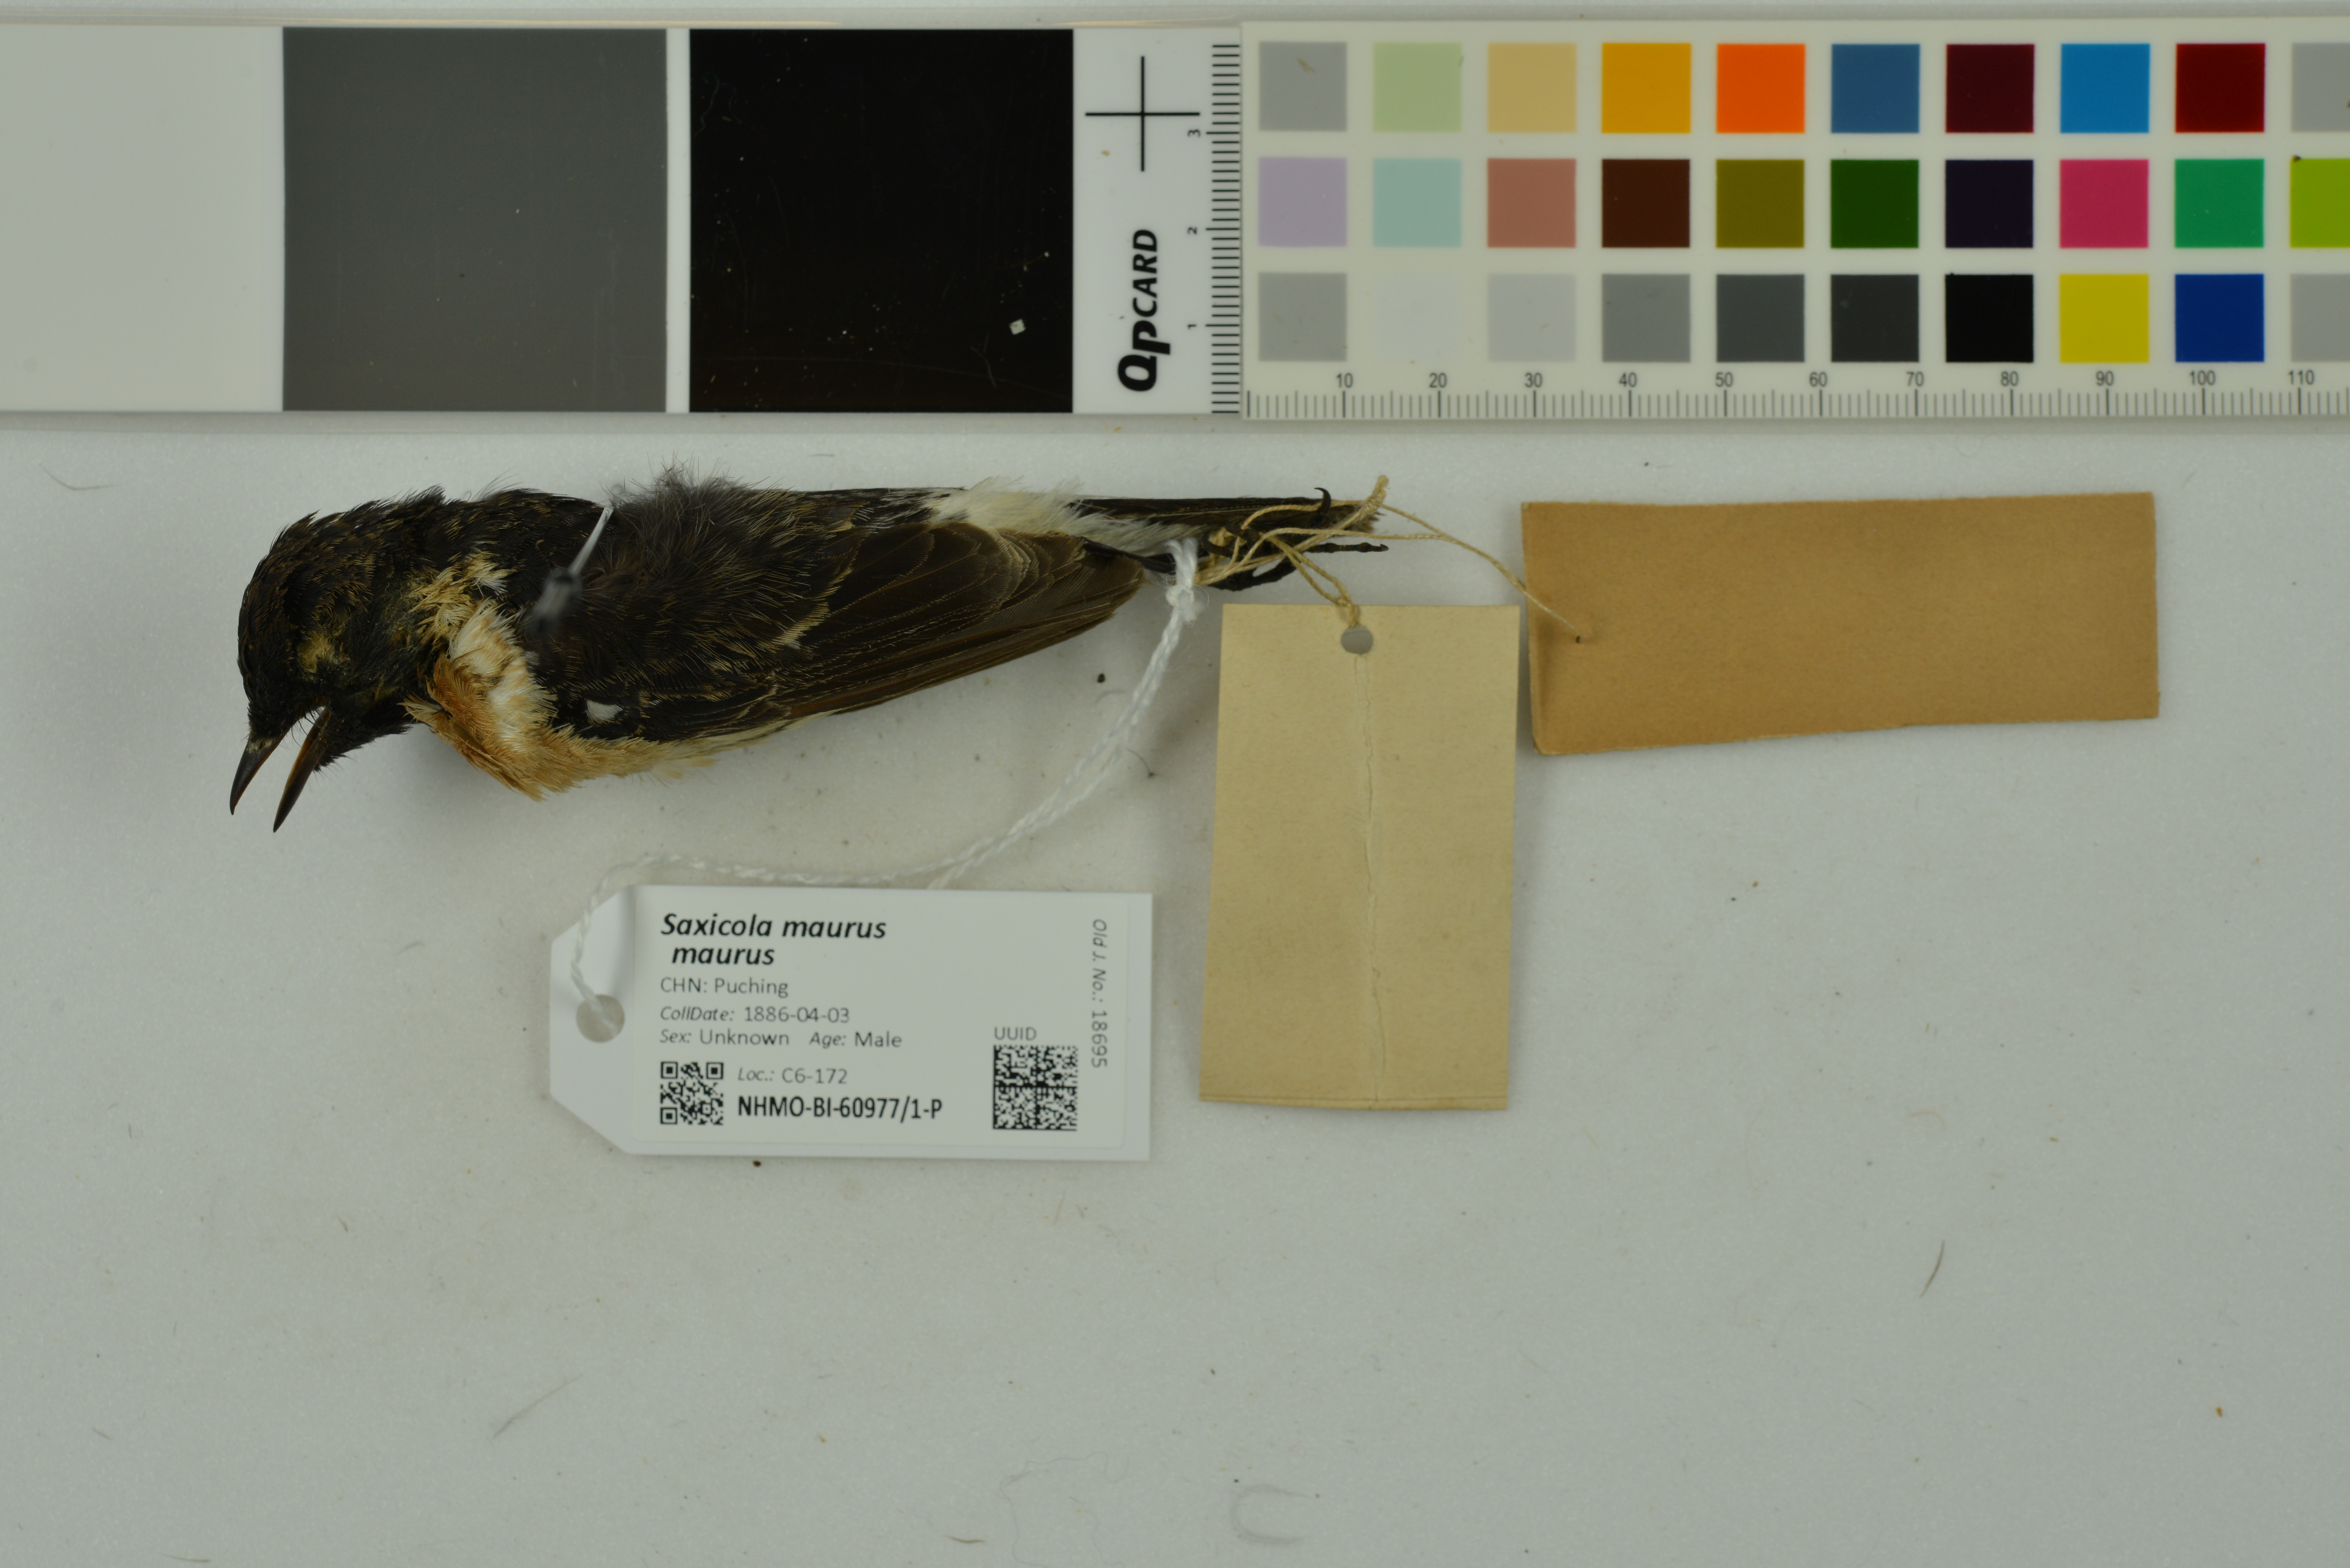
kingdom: Animalia
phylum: Chordata
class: Aves
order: Passeriformes
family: Muscicapidae
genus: Saxicola
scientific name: Saxicola maurus
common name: Siberian stonechat
